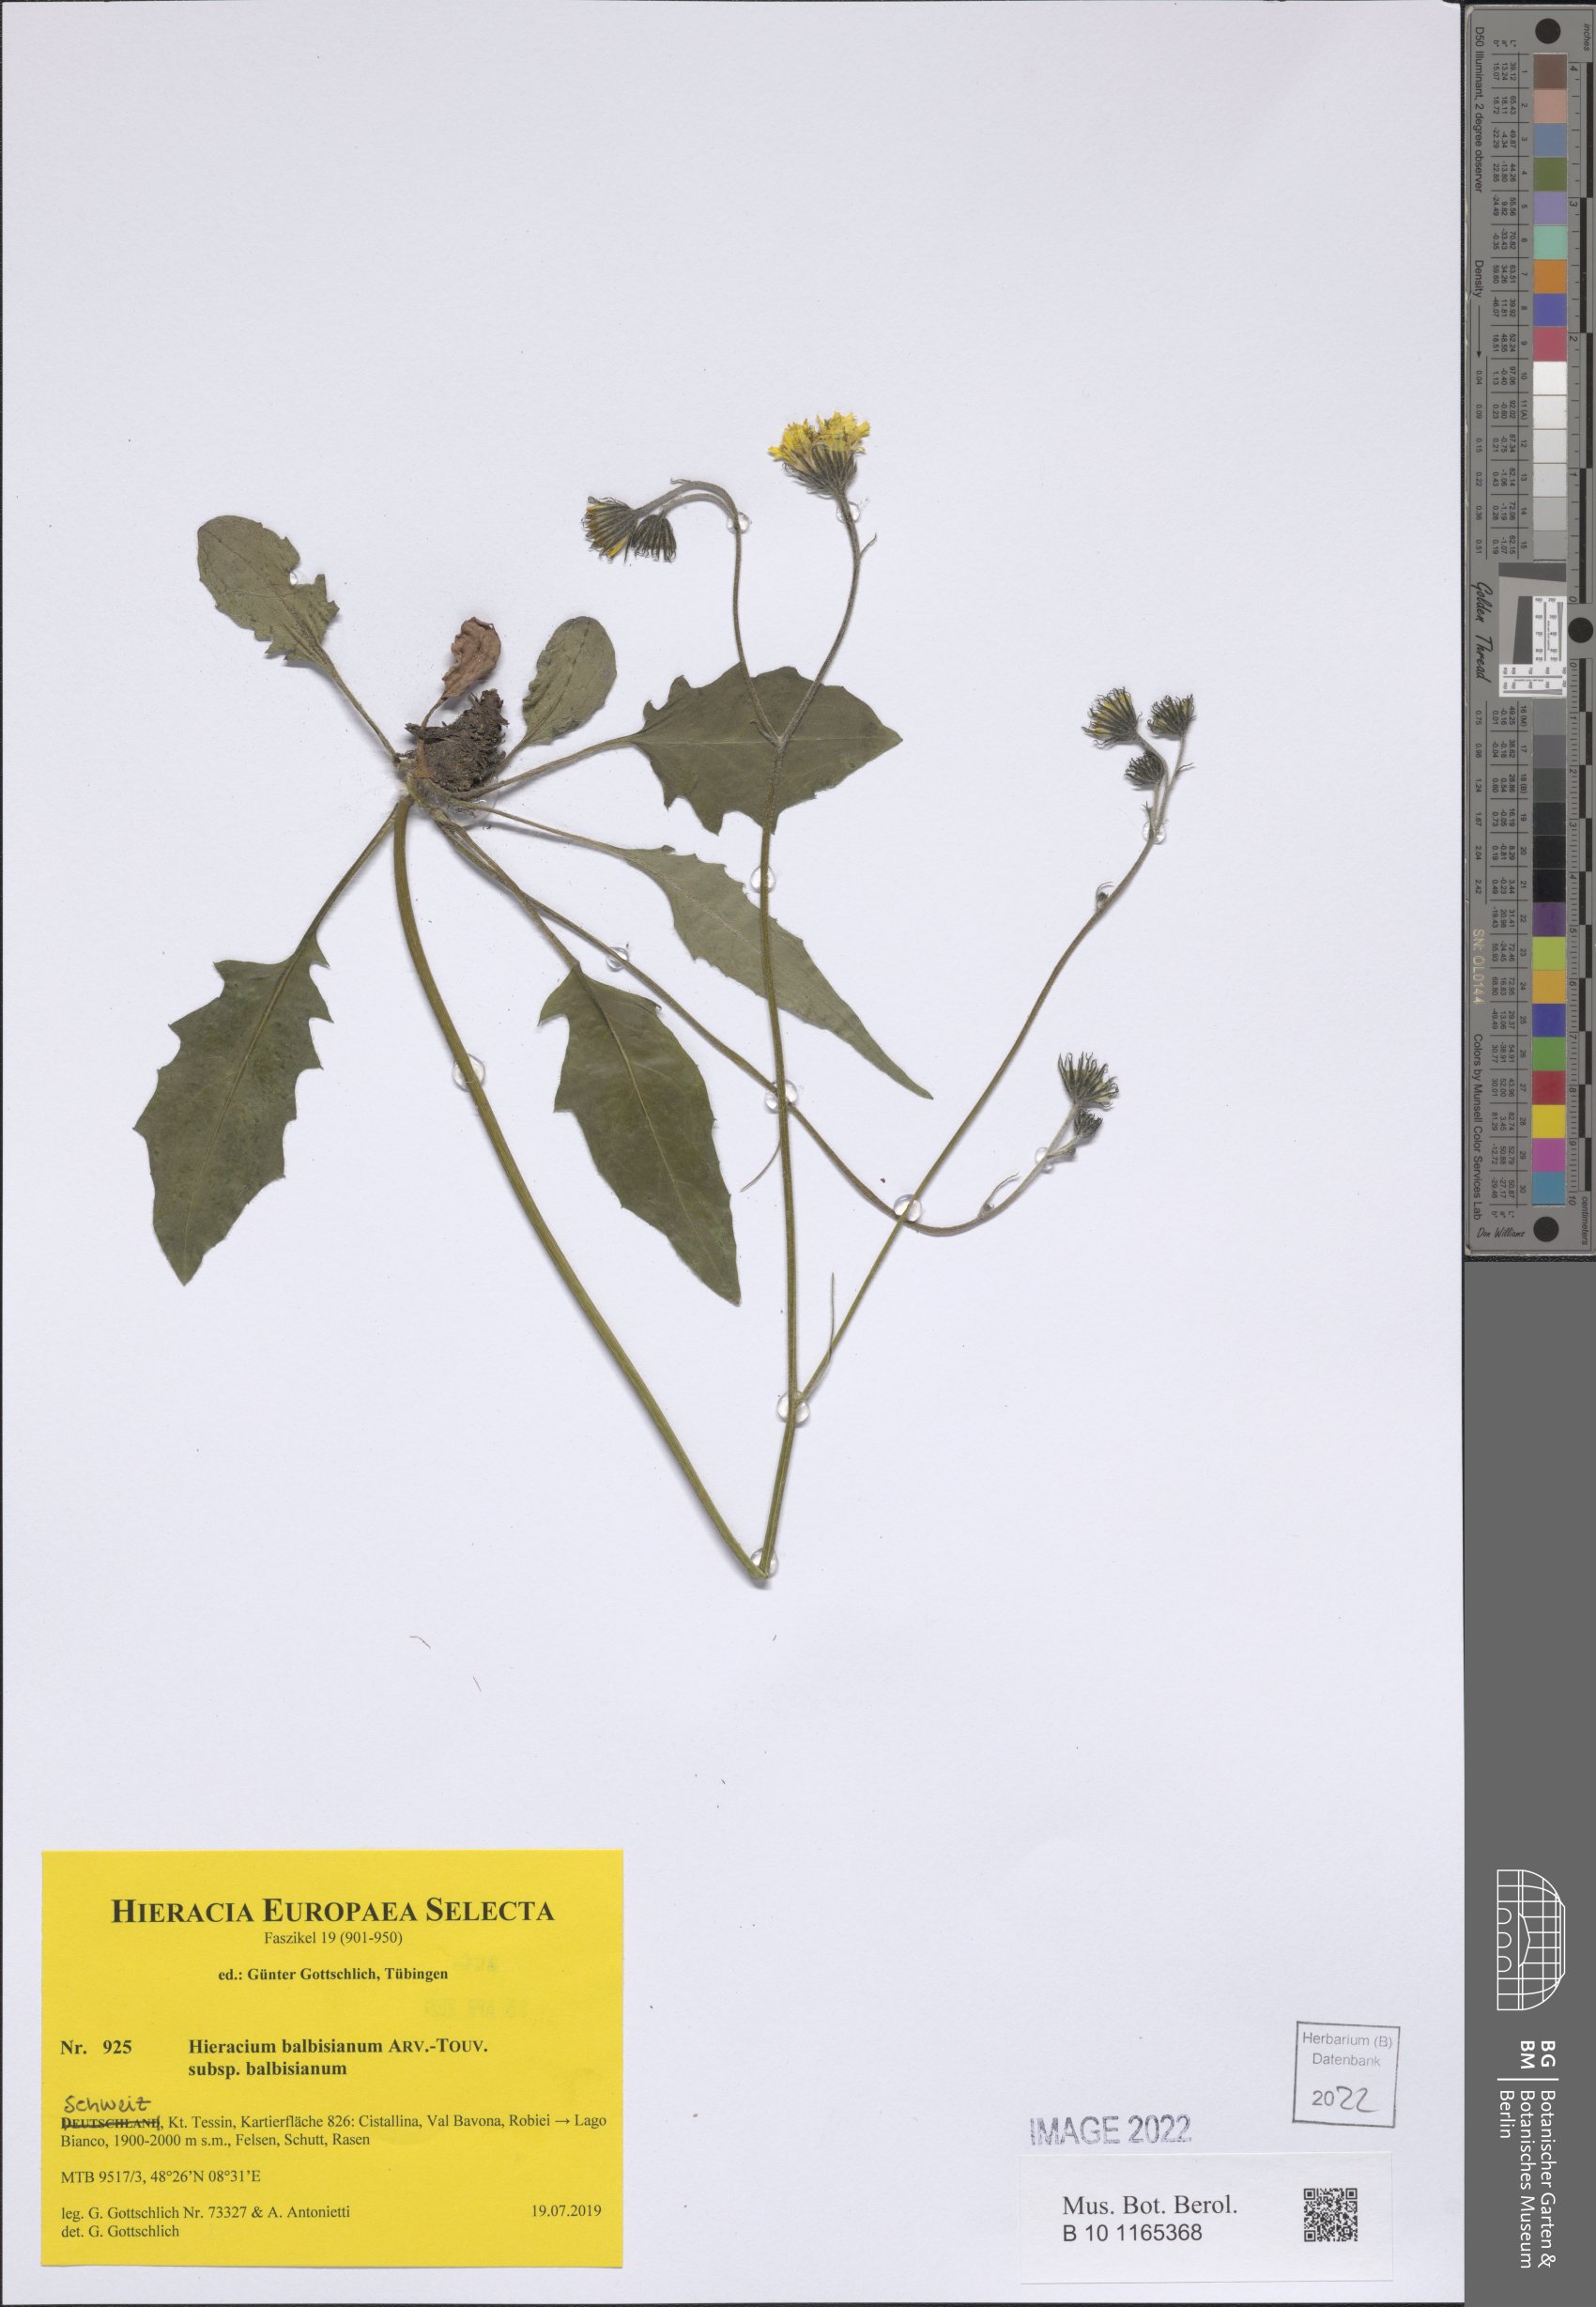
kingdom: Plantae
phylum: Tracheophyta
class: Magnoliopsida
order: Asterales
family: Asteraceae
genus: Hieracium
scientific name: Hieracium balbisianum
